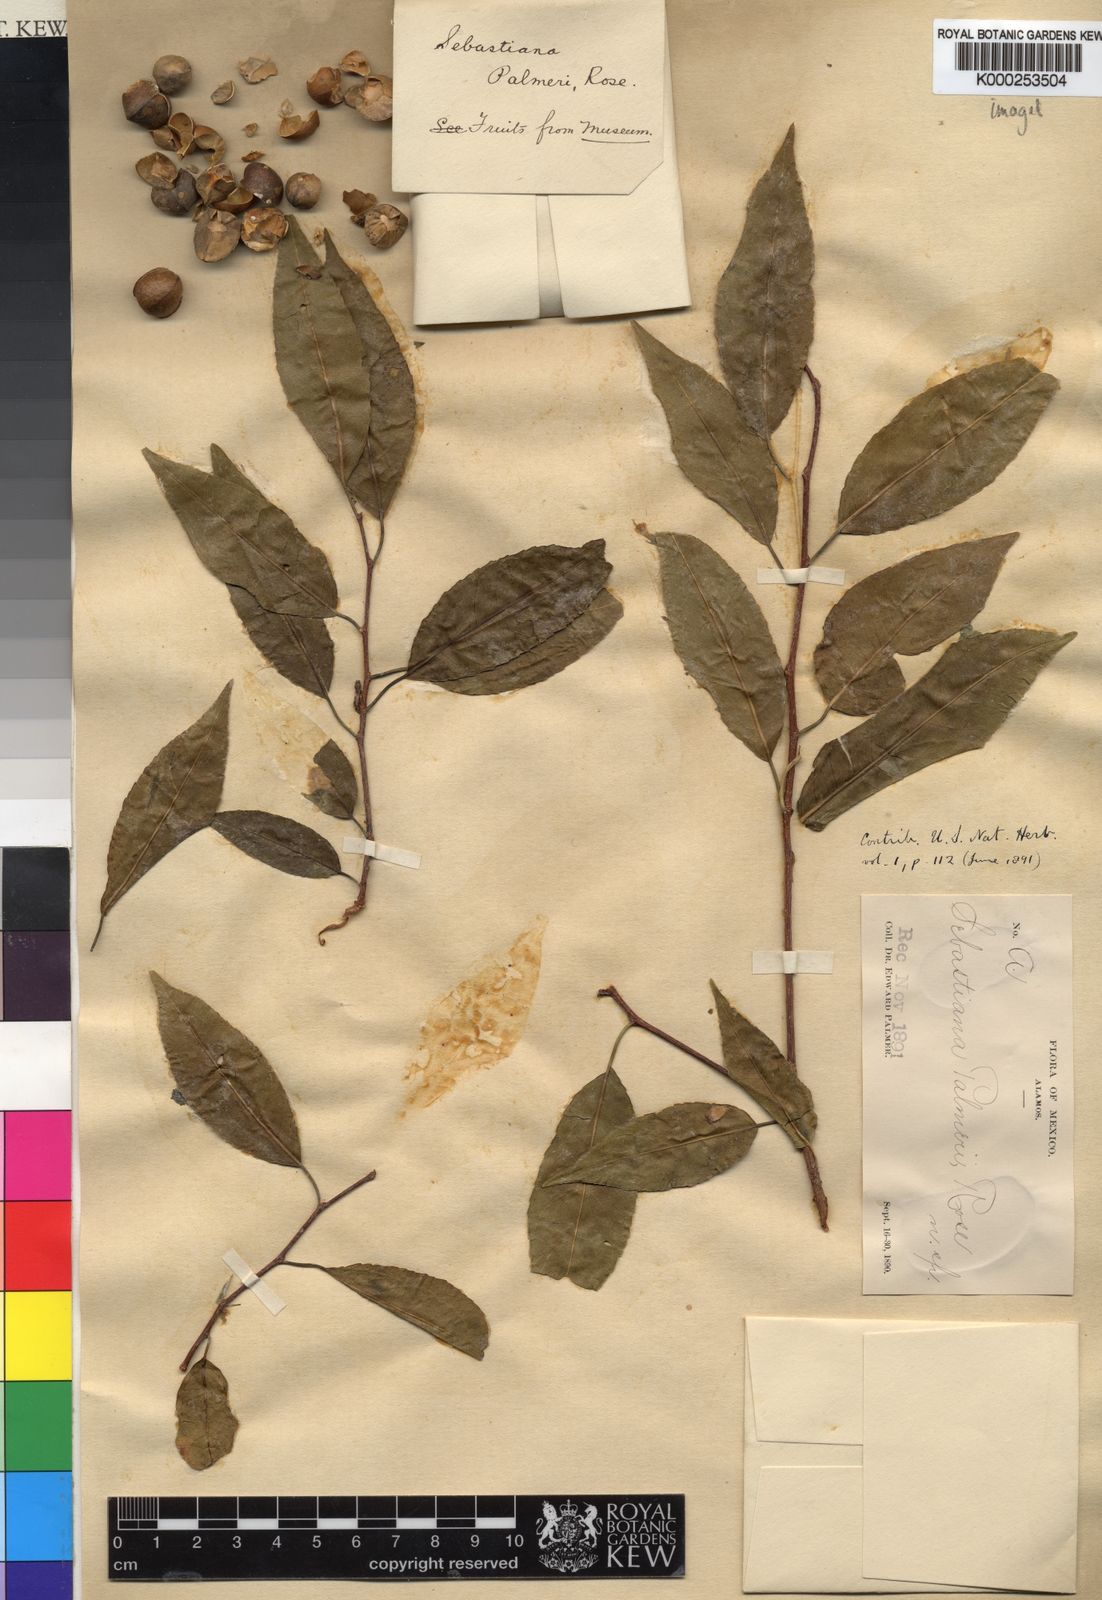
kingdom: Plantae
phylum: Tracheophyta
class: Magnoliopsida
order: Malpighiales
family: Euphorbiaceae
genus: Sebastiania
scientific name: Sebastiania
